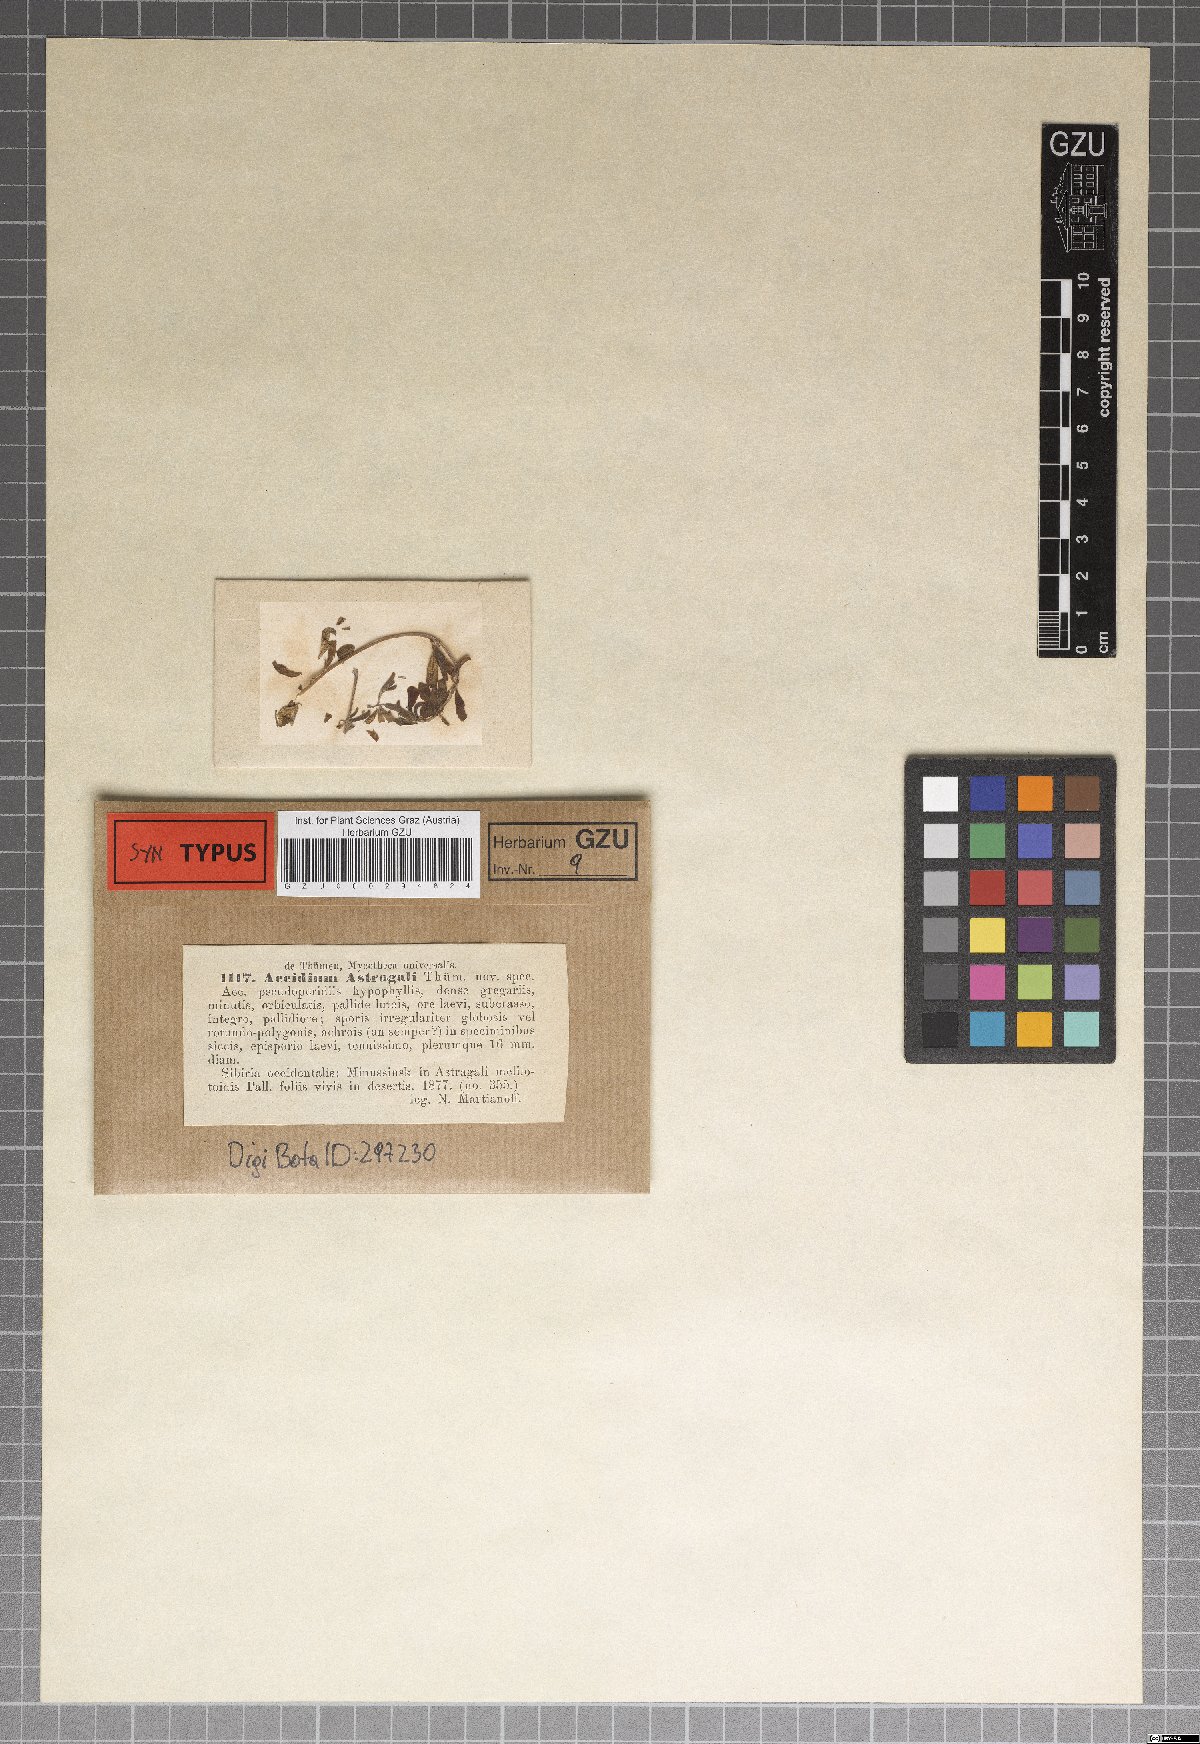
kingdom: Fungi
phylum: Basidiomycota
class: Pucciniomycetes
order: Pucciniales
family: Pucciniaceae
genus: Aecidium
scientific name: Aecidium
